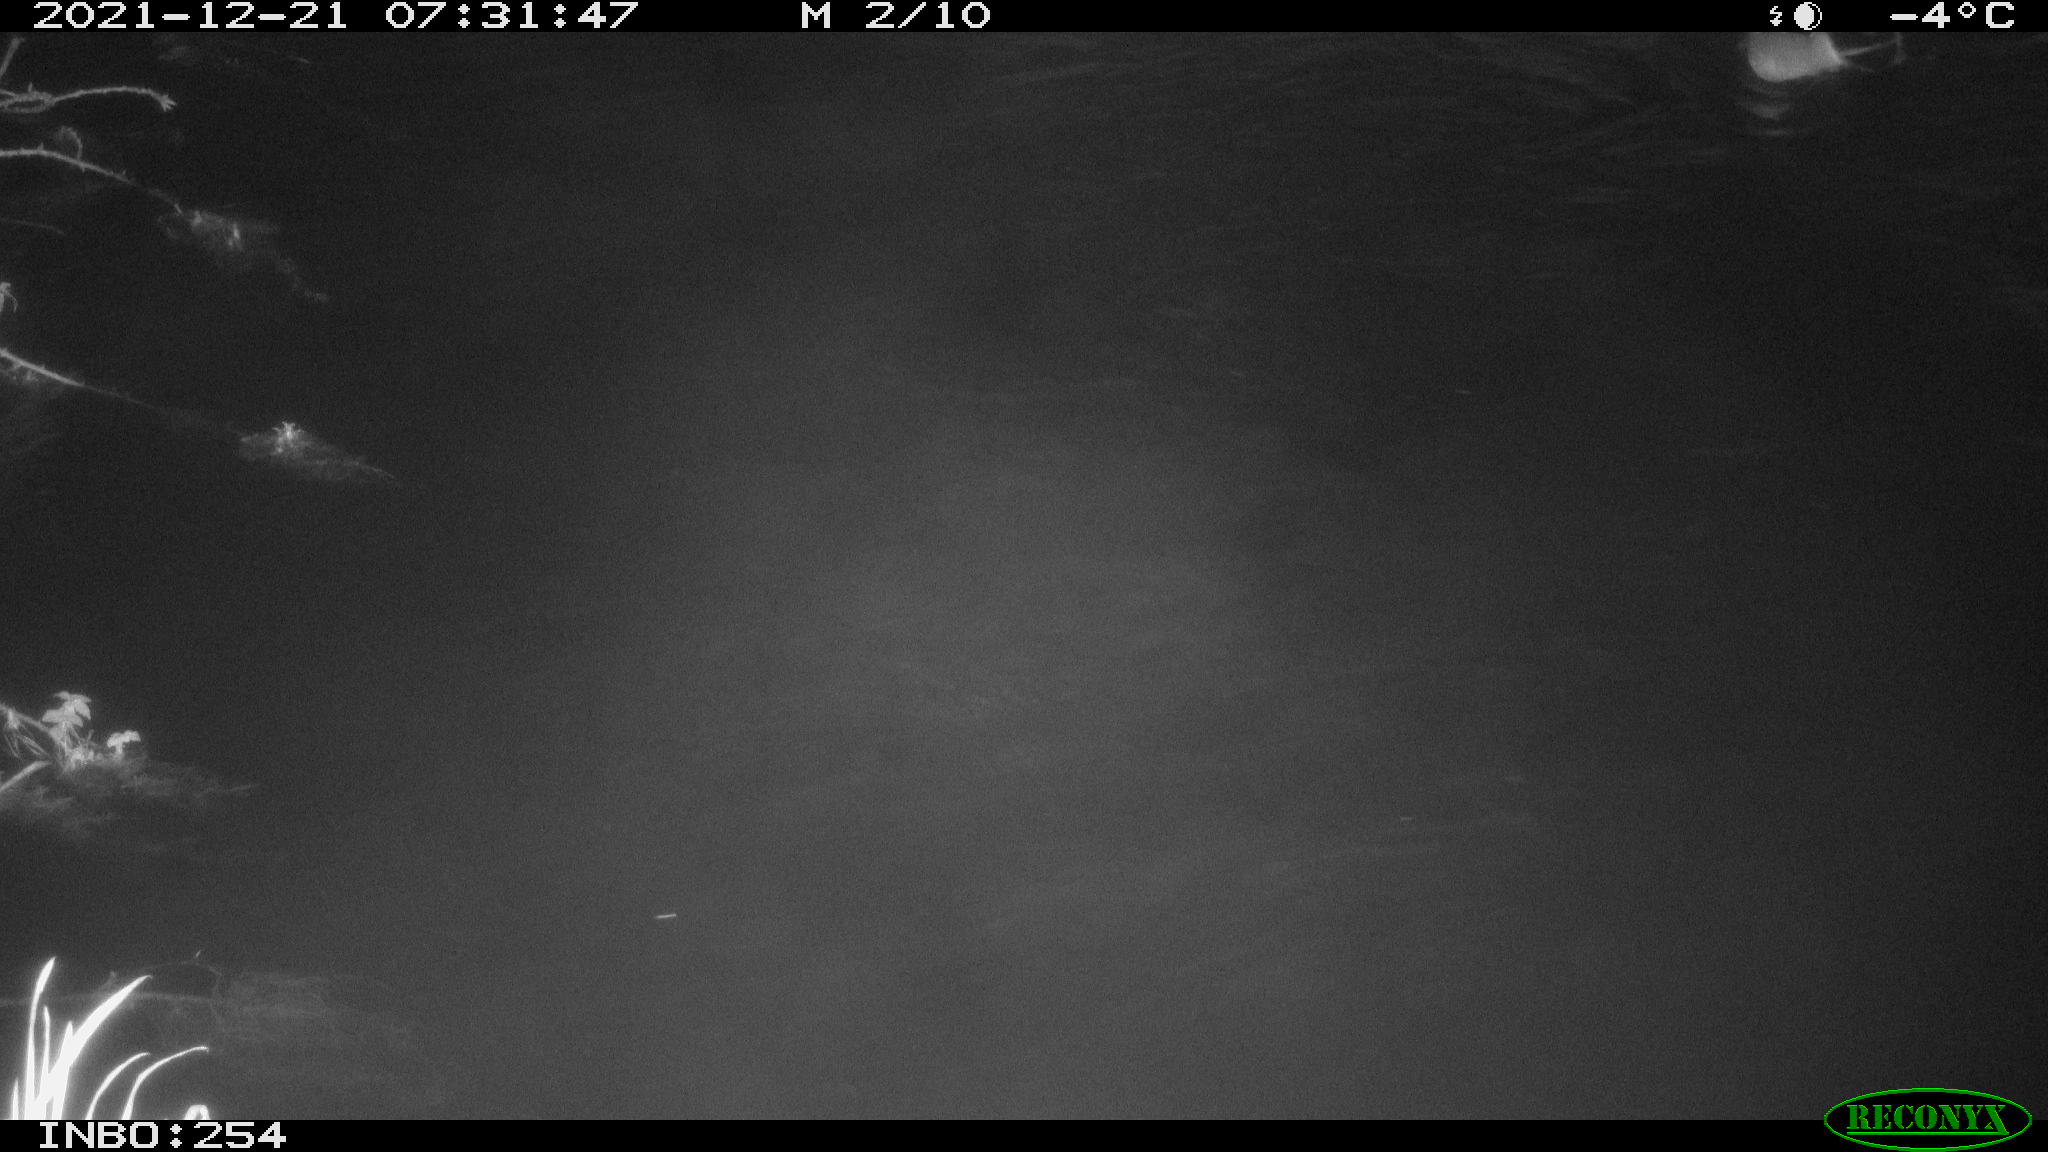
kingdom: Animalia
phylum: Chordata
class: Aves
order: Anseriformes
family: Anatidae
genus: Anas
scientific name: Anas platyrhynchos
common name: Mallard
